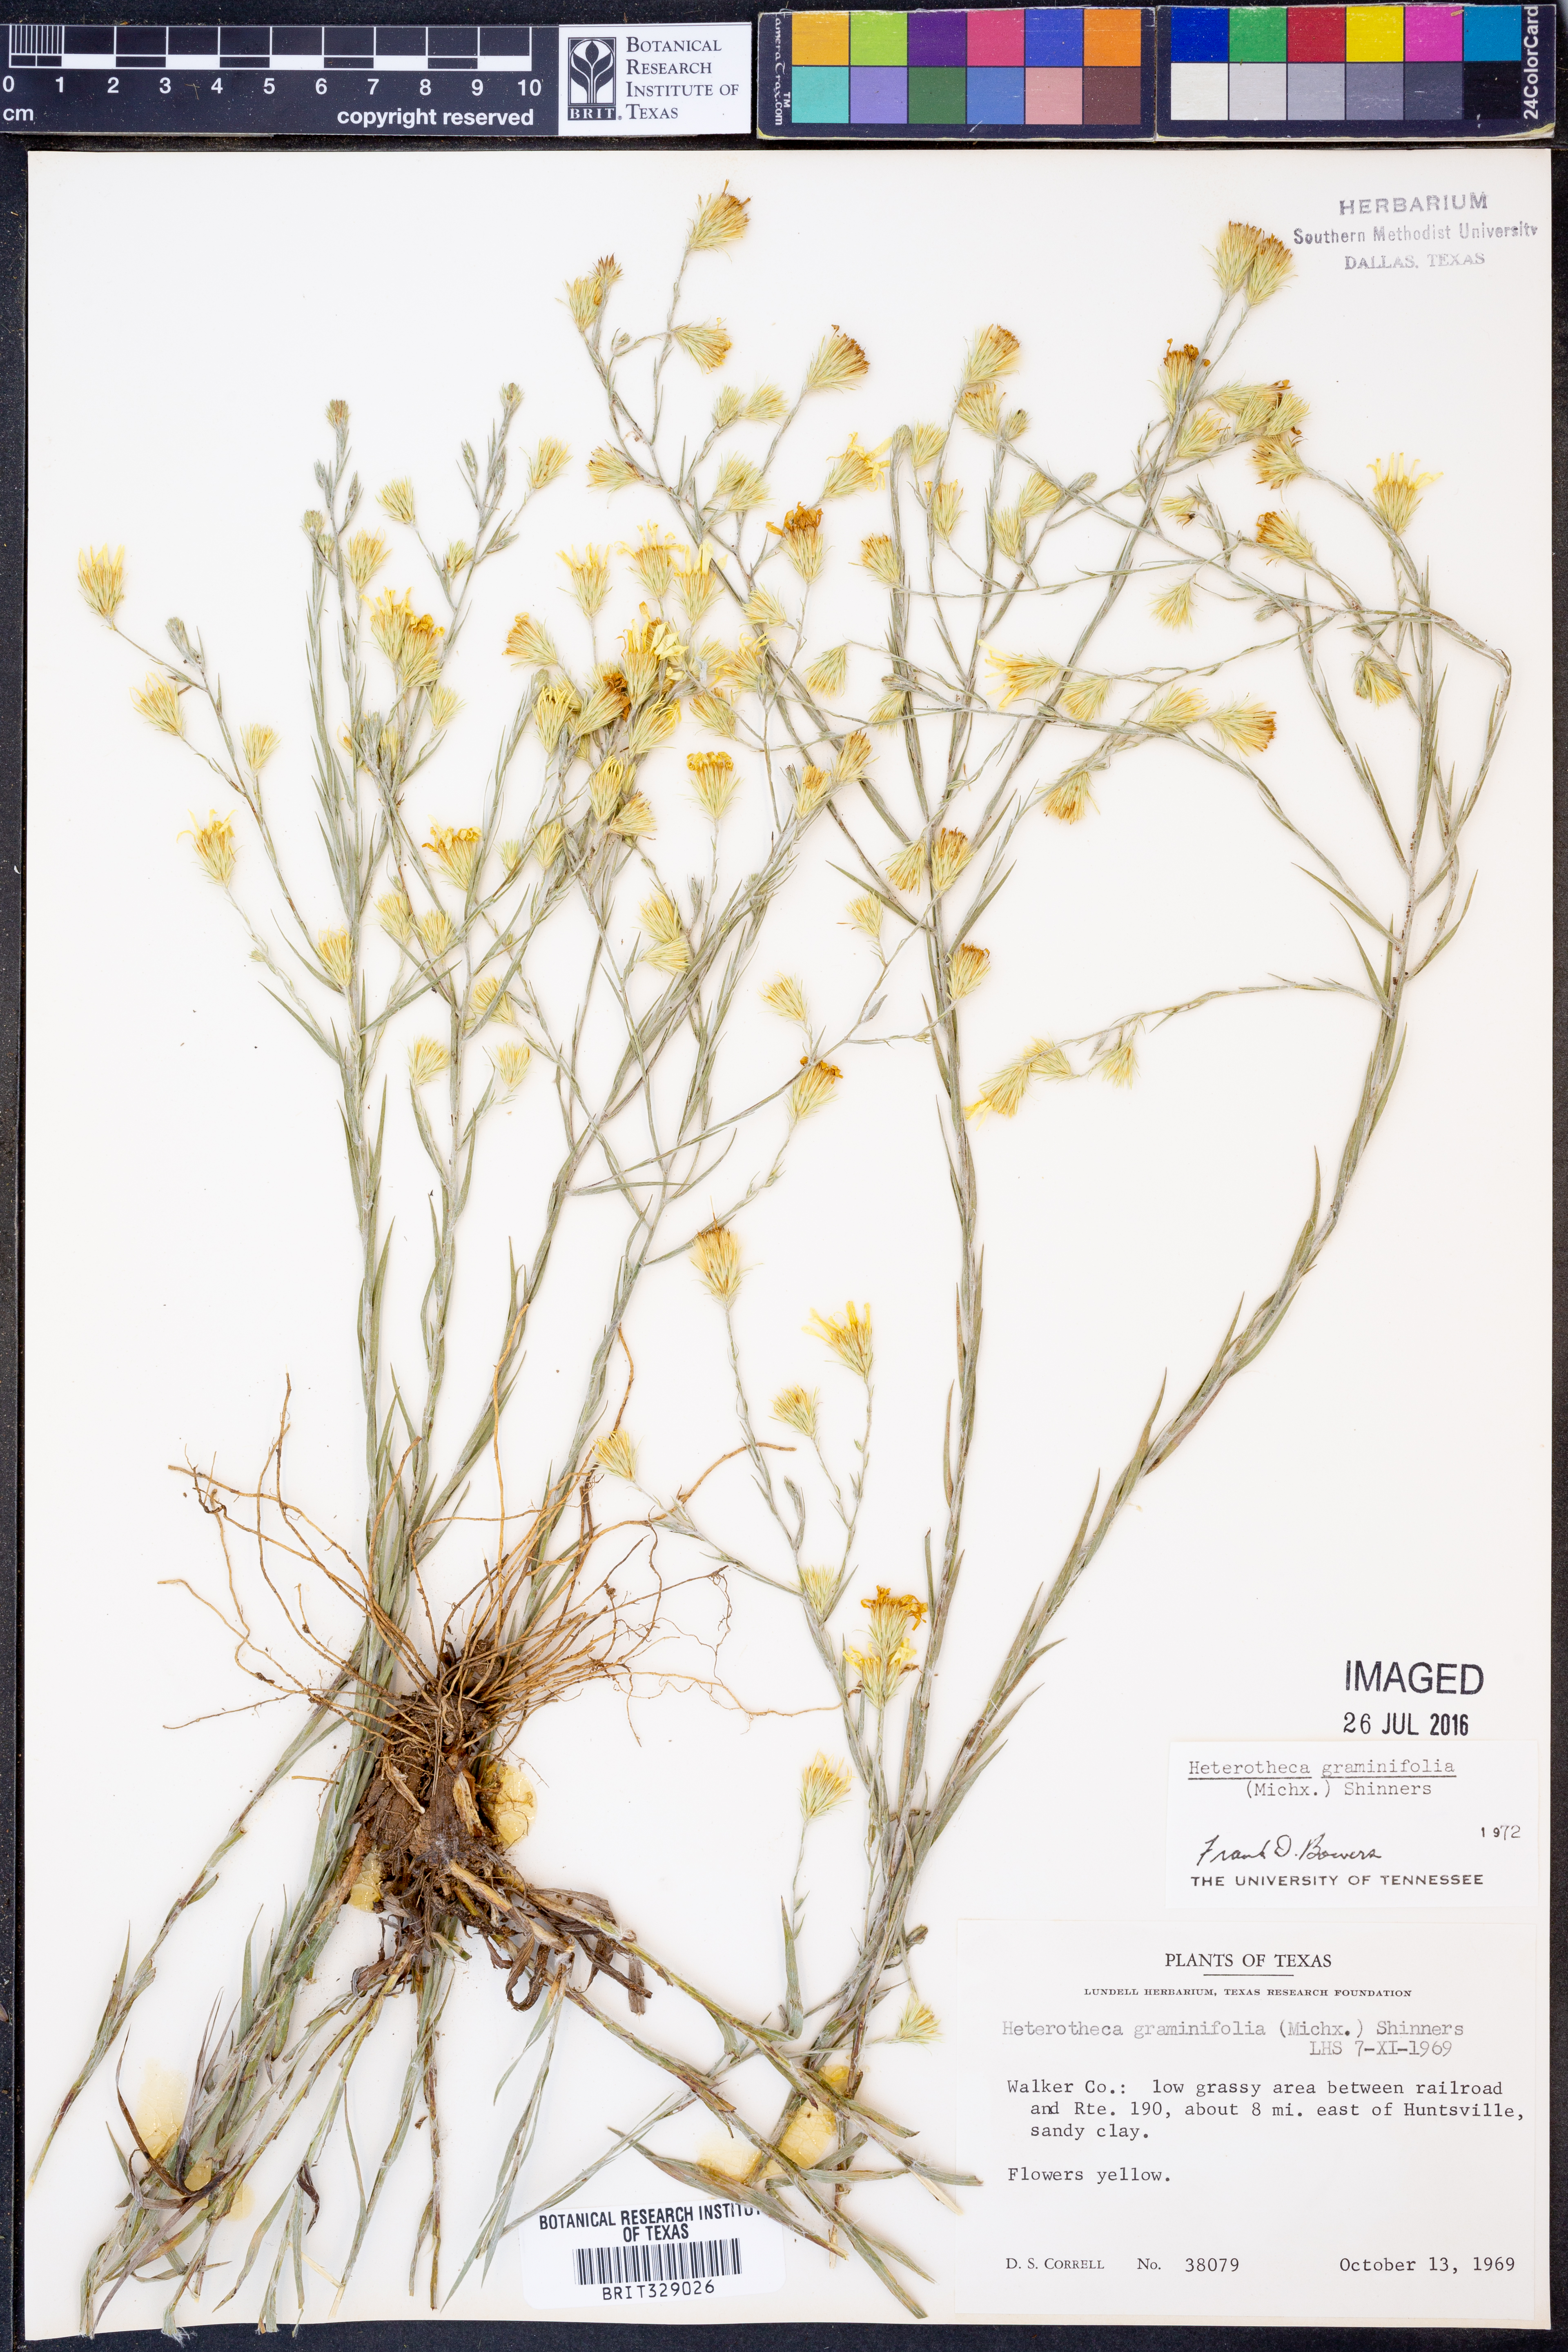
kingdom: Plantae
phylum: Tracheophyta
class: Magnoliopsida
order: Asterales
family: Asteraceae
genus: Pityopsis
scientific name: Pityopsis graminifolia
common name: Grass-leaf golden-aster
